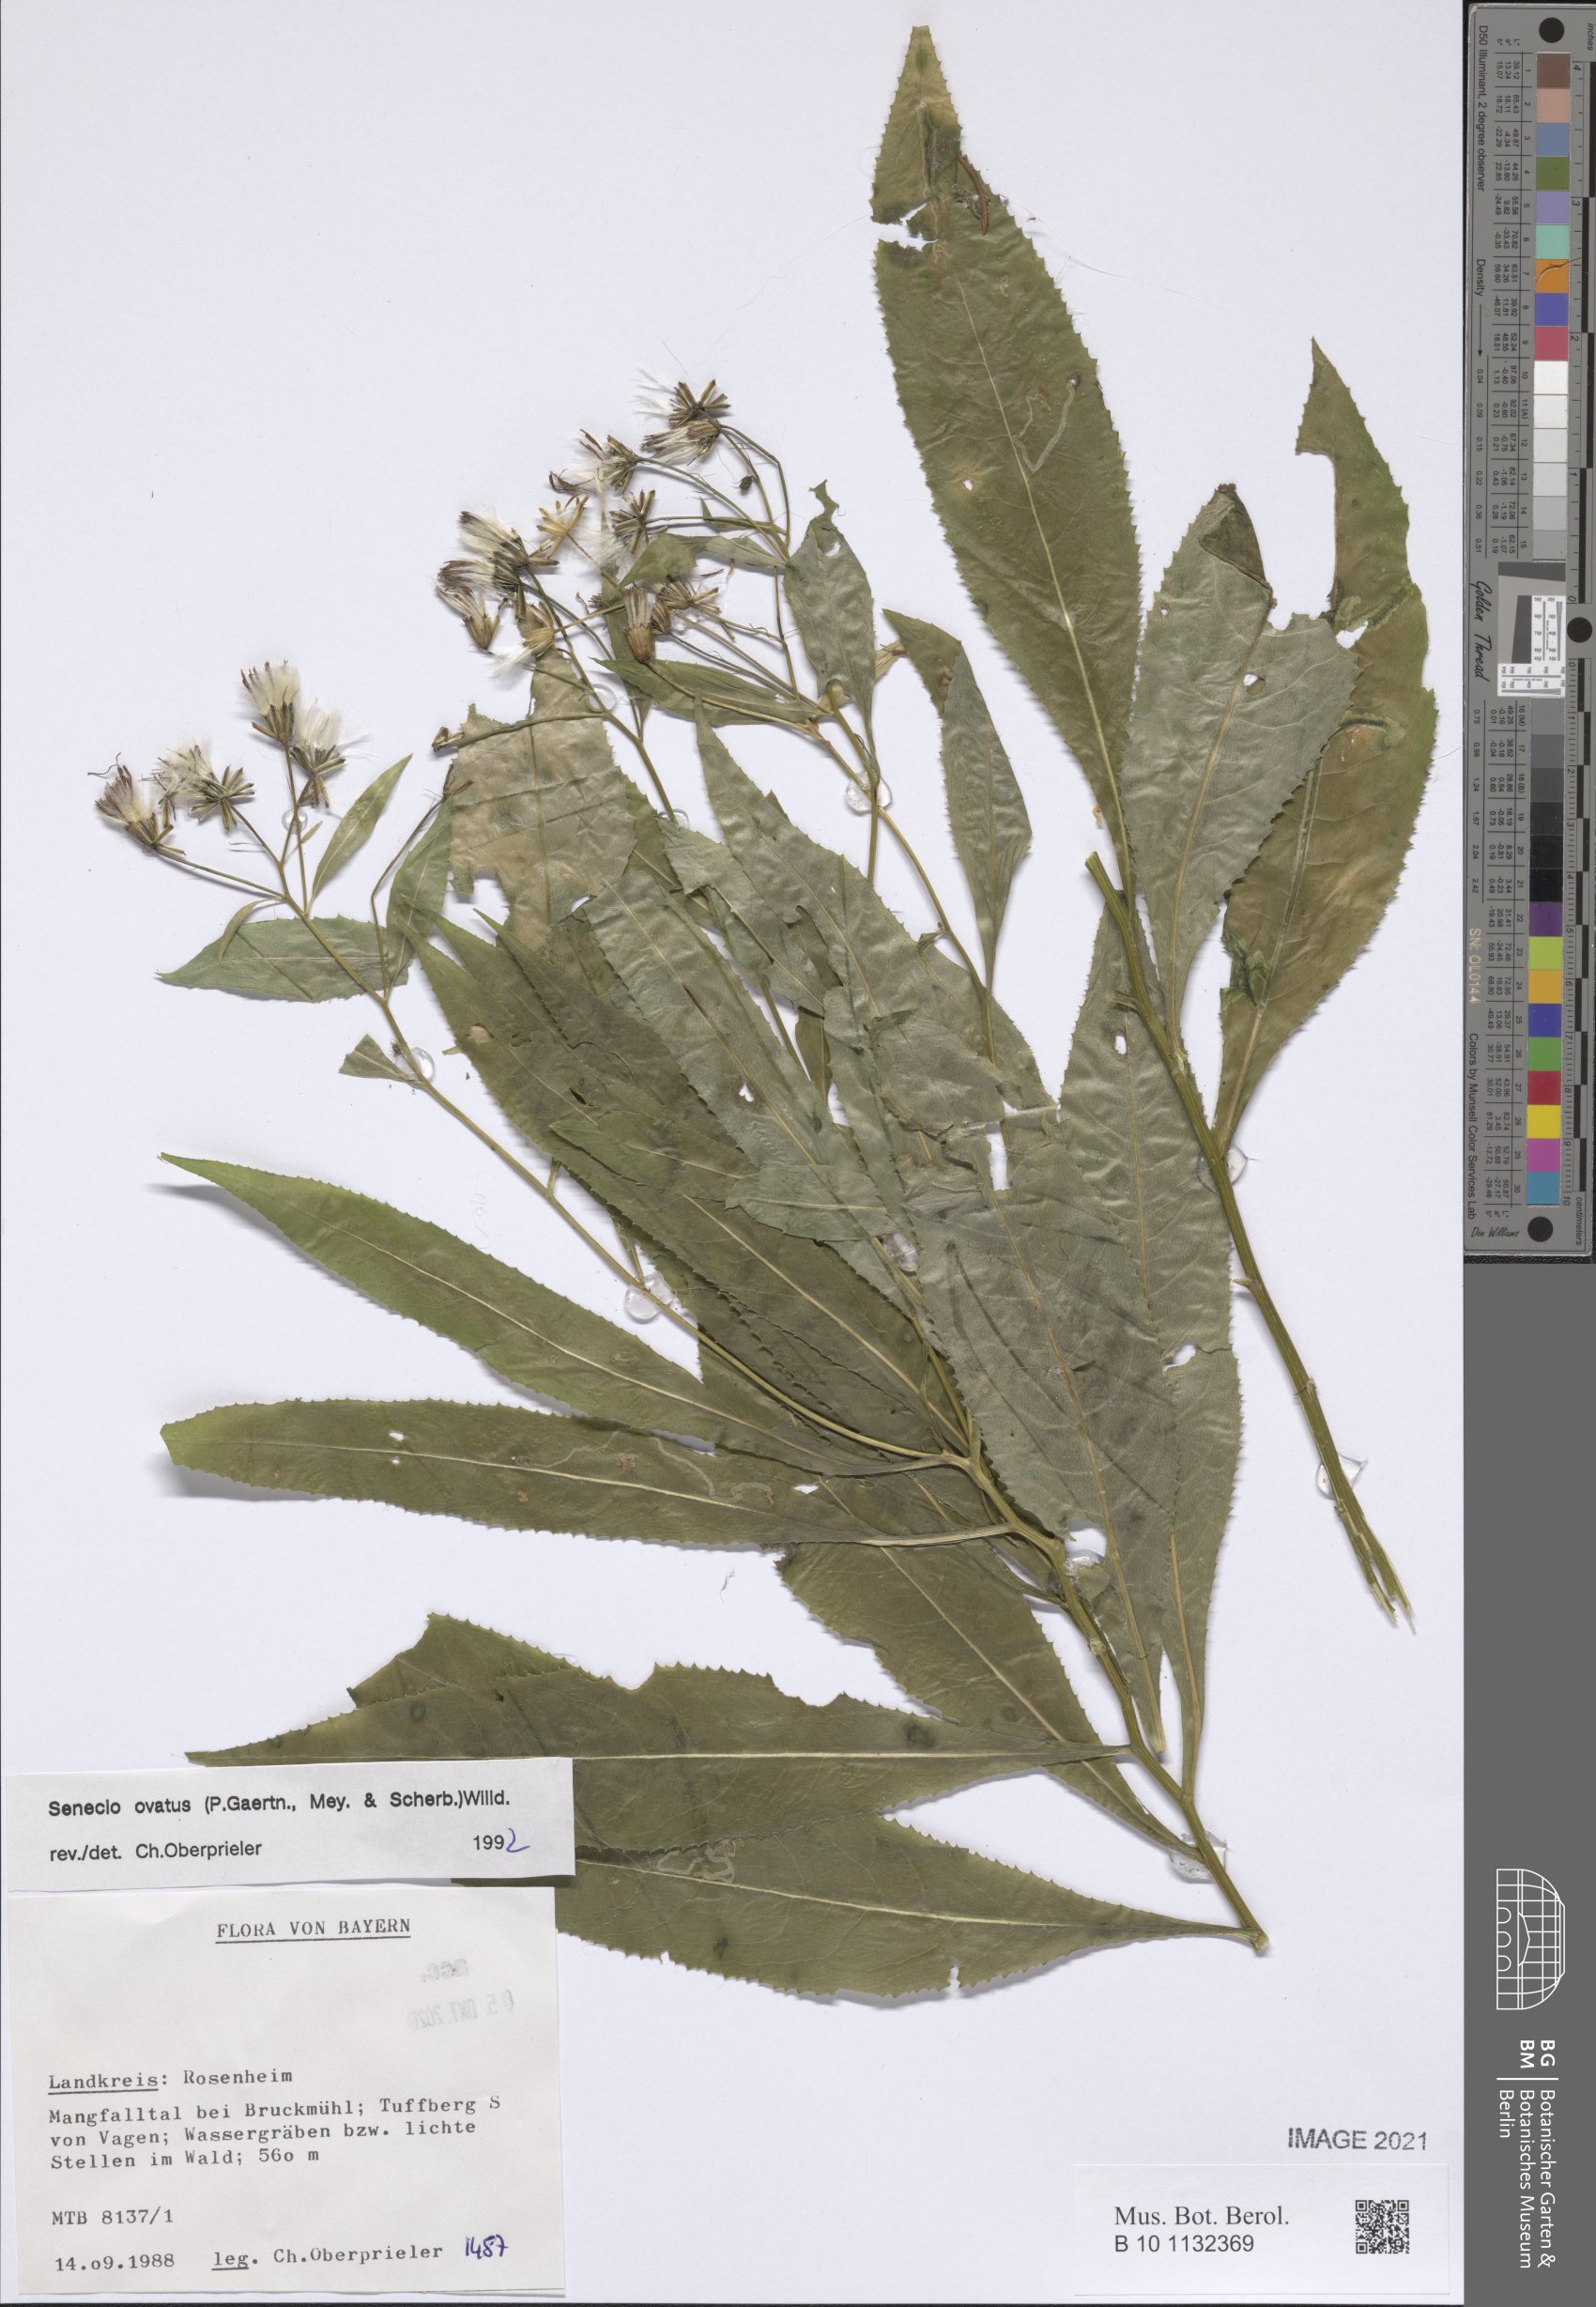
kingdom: Plantae
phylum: Tracheophyta
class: Magnoliopsida
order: Asterales
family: Asteraceae
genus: Senecio
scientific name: Senecio ovatus
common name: Wood ragwort
